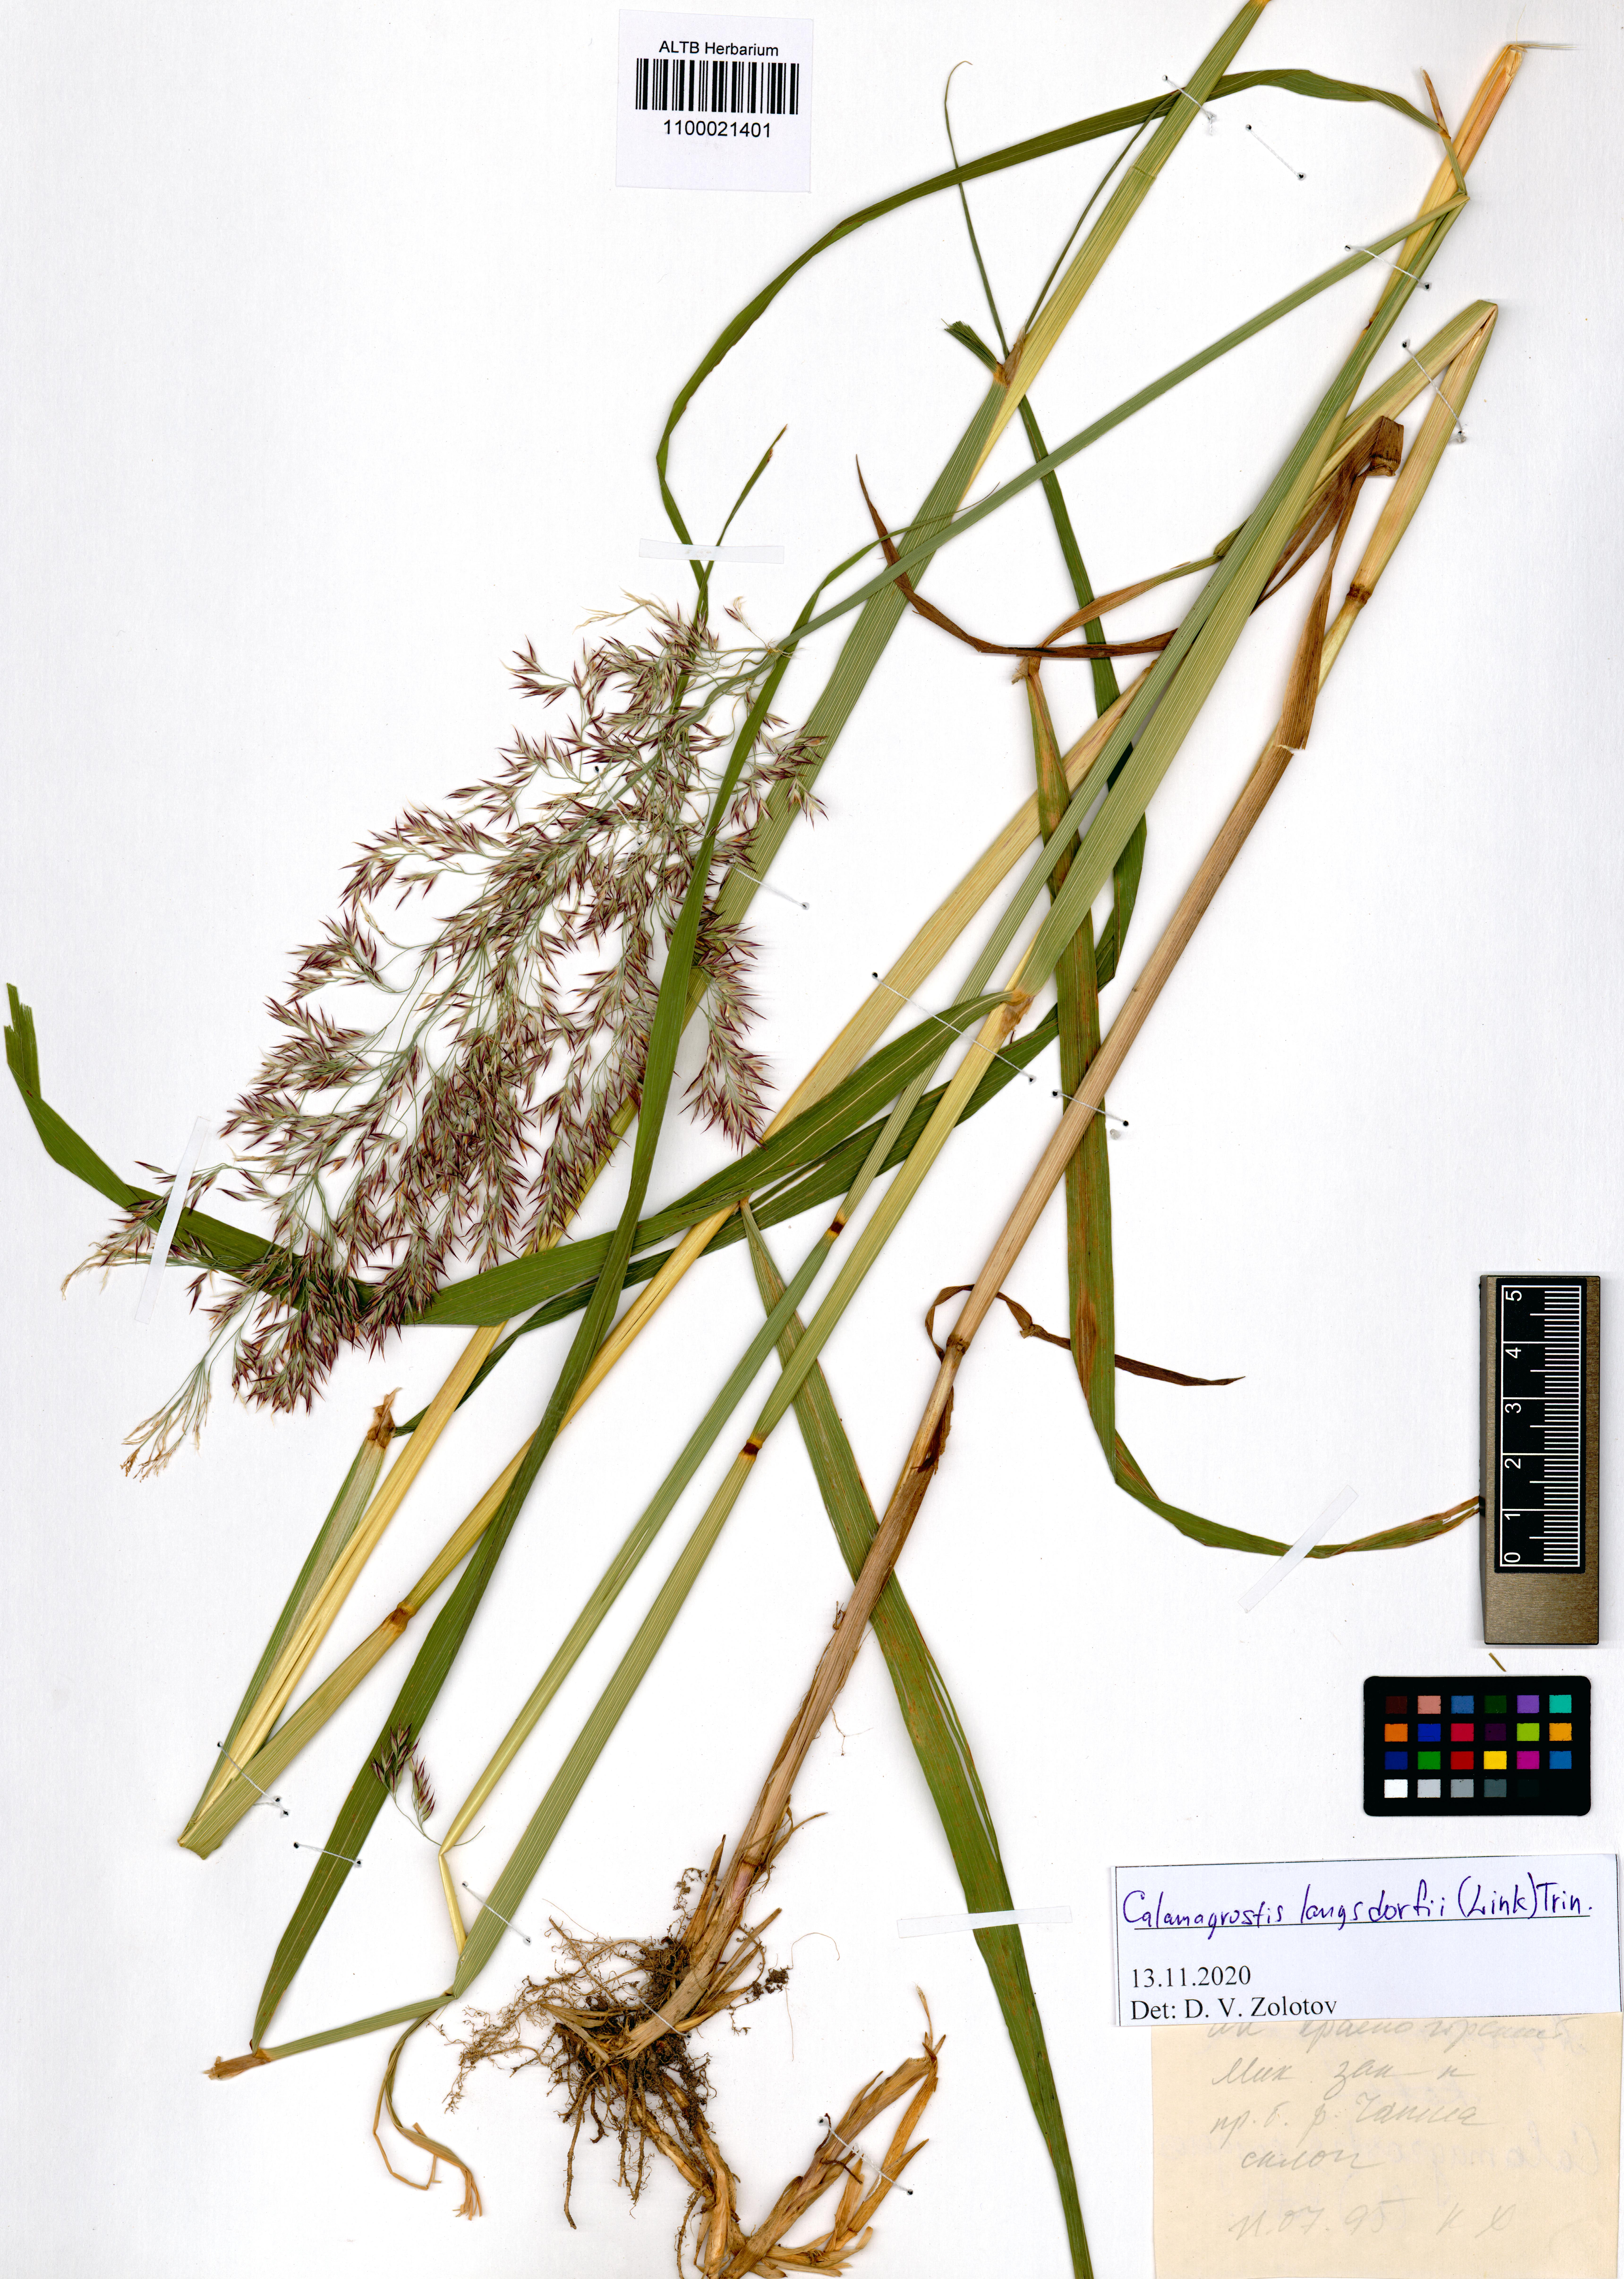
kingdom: Plantae
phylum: Tracheophyta
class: Liliopsida
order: Poales
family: Poaceae
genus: Calamagrostis
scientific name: Calamagrostis purpurea
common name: Scandinavian small-reed
